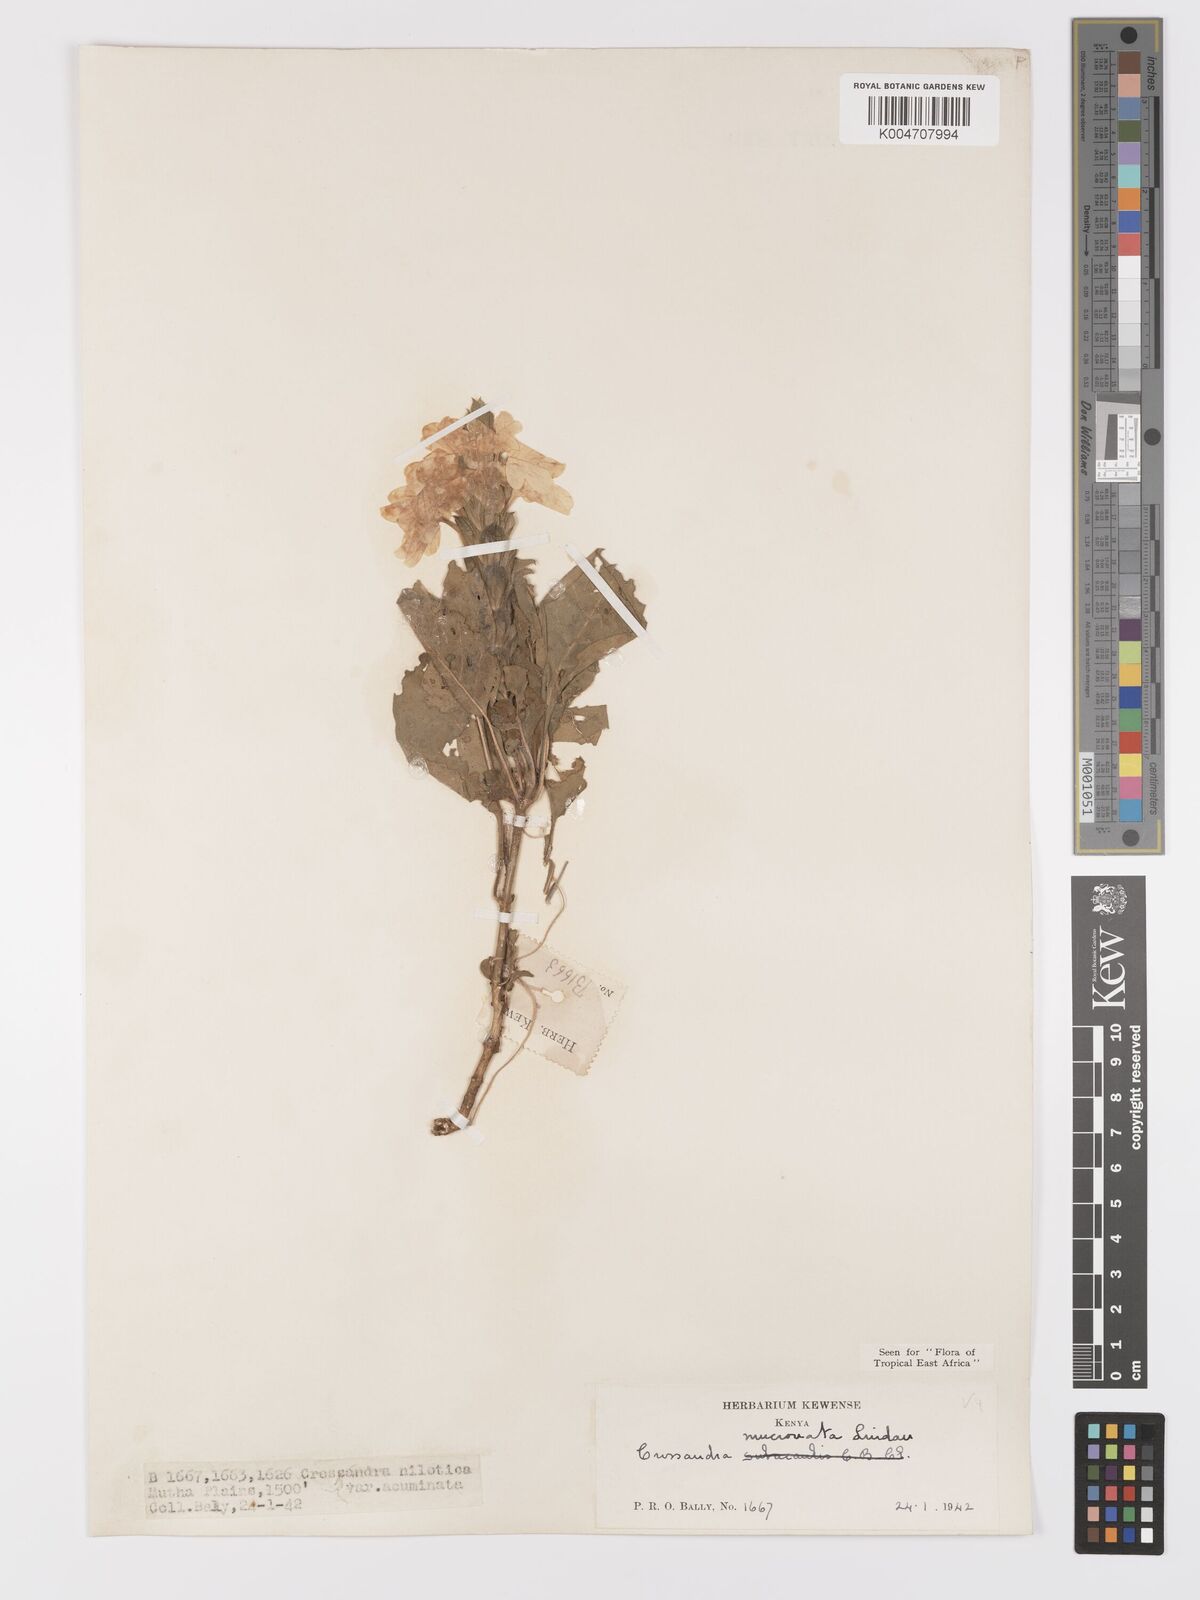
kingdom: Plantae
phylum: Tracheophyta
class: Magnoliopsida
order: Lamiales
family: Acanthaceae
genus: Crossandra
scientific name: Crossandra mucronata
